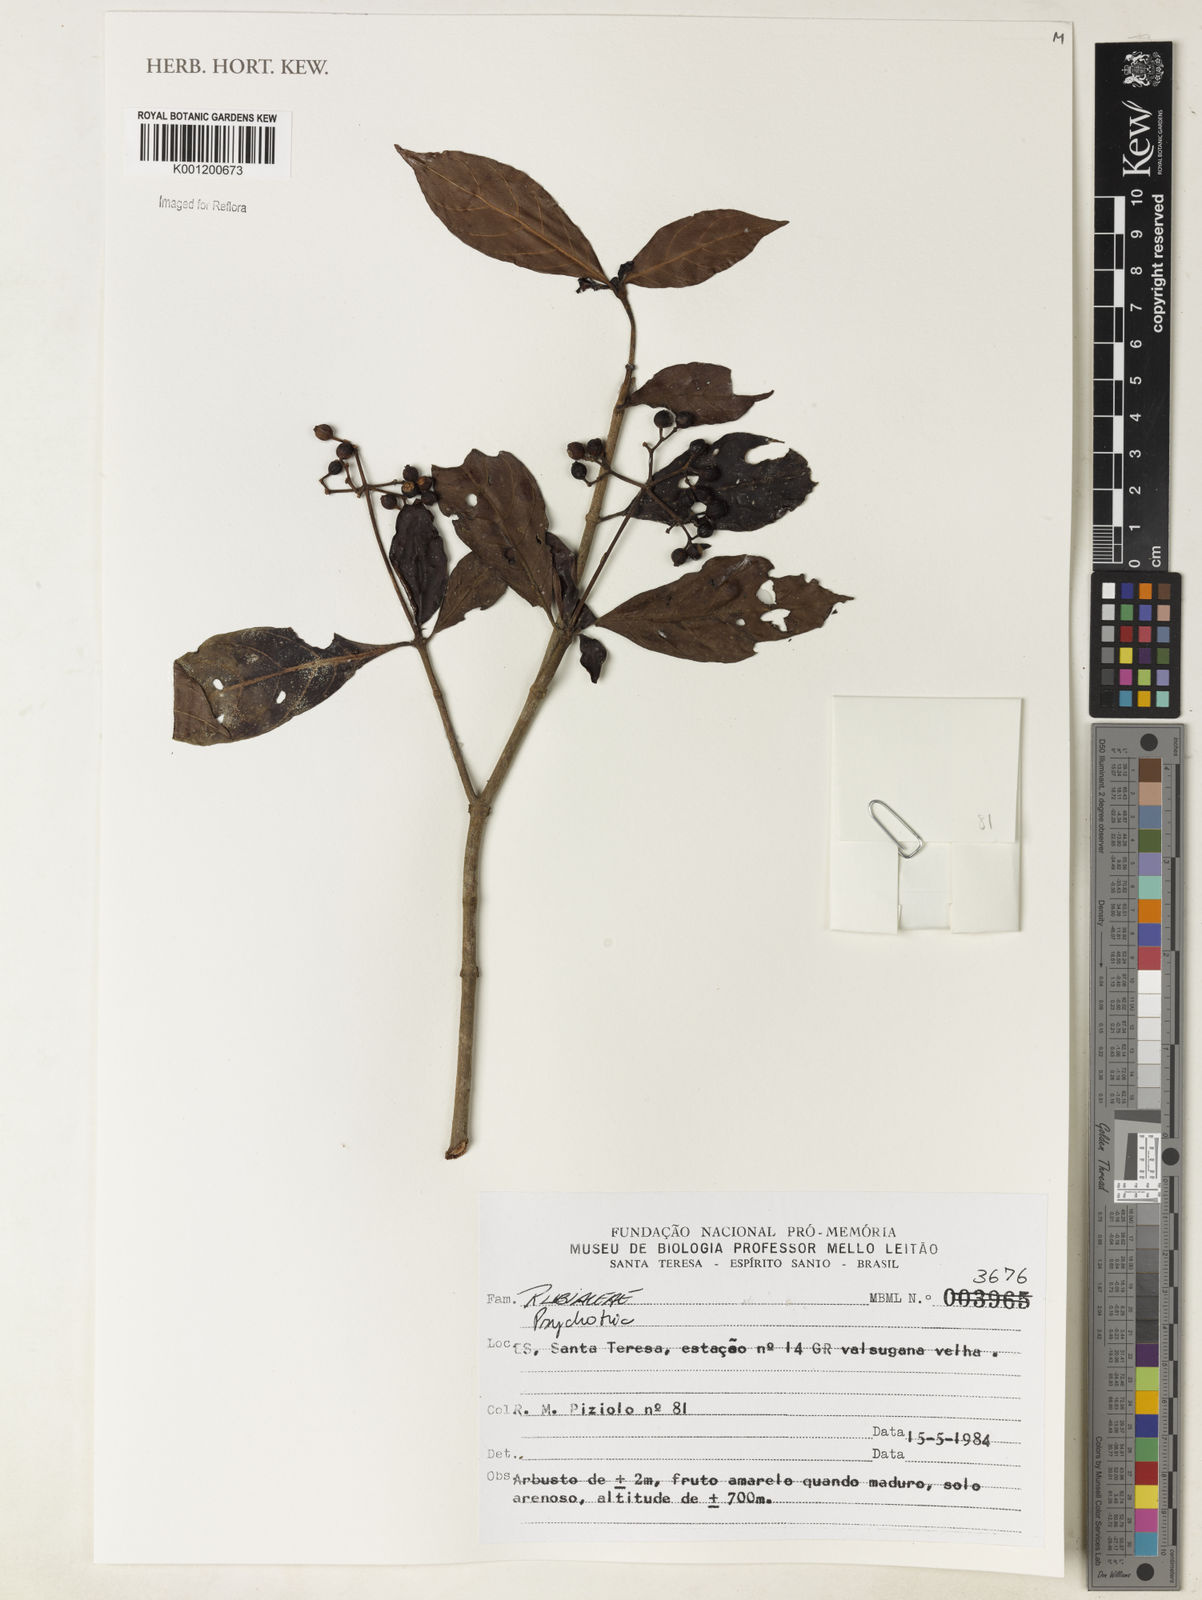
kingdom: Plantae
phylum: Tracheophyta
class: Magnoliopsida
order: Gentianales
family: Rubiaceae
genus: Psychotria
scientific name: Psychotria
